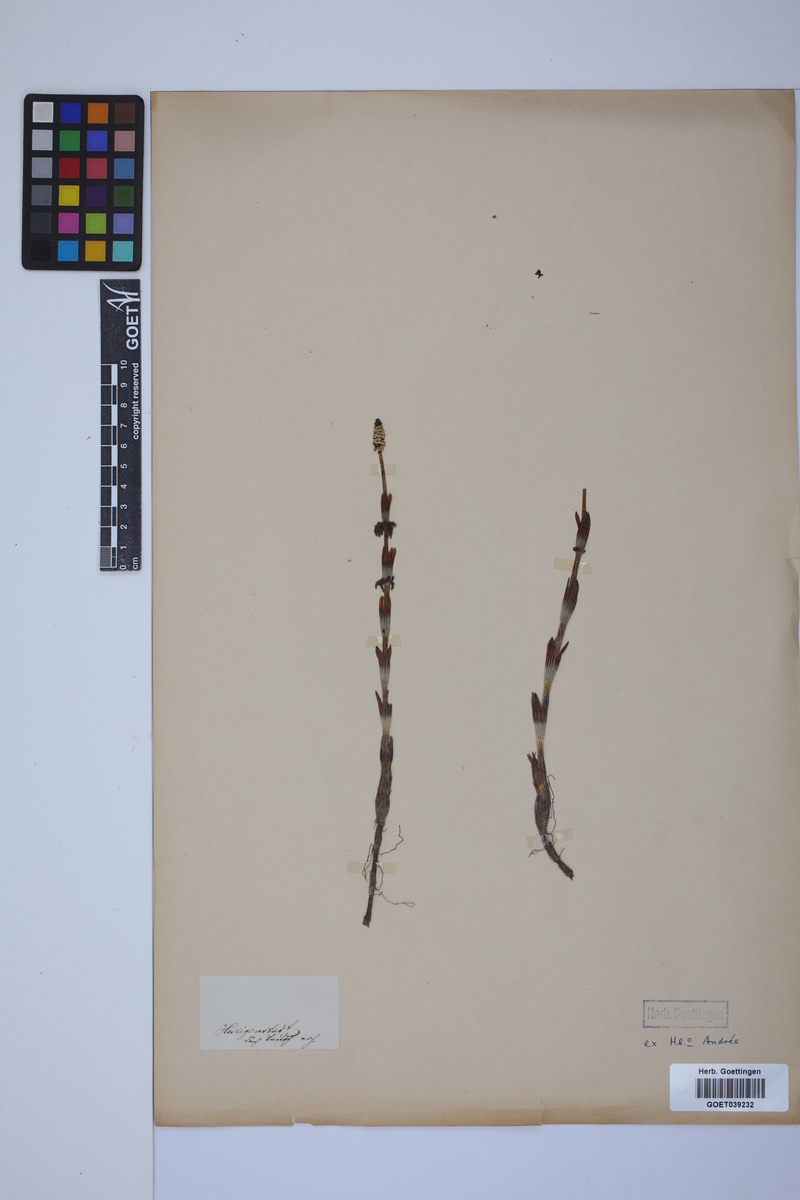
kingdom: Plantae
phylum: Tracheophyta
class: Polypodiopsida
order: Equisetales
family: Equisetaceae
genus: Equisetum
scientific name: Equisetum sylvaticum
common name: Wood horsetail
